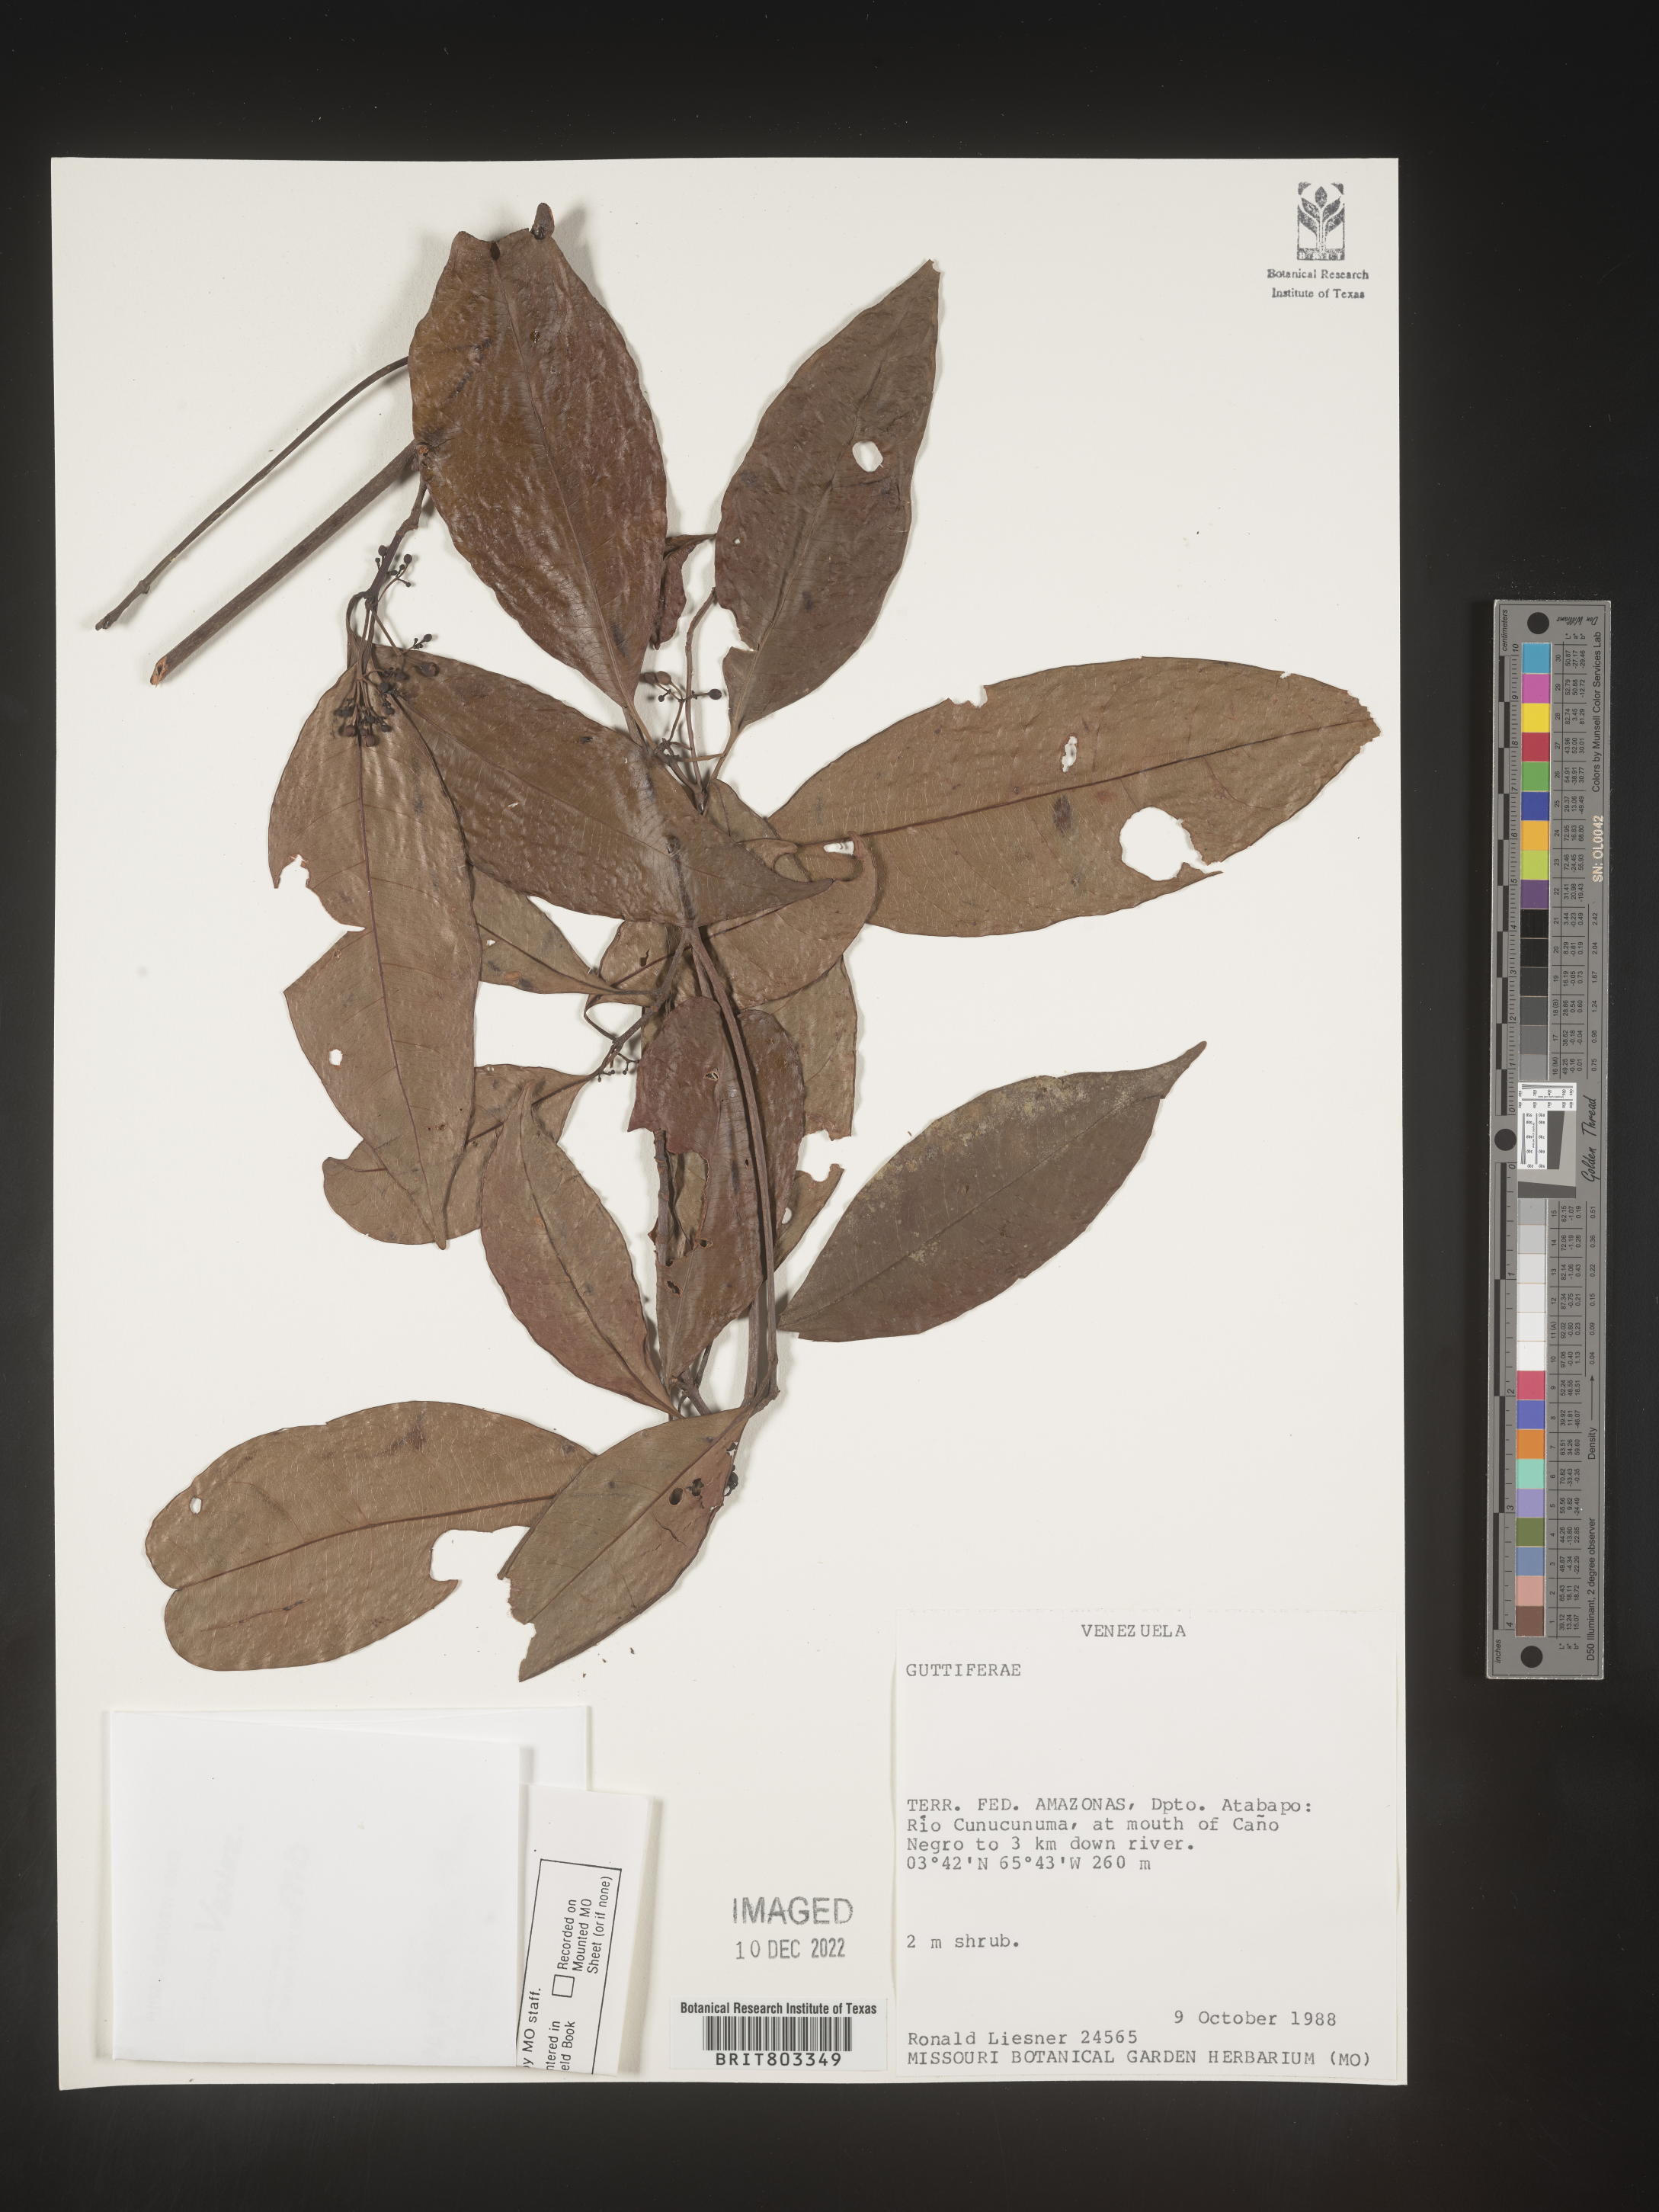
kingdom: Plantae
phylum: Tracheophyta
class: Magnoliopsida
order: Malpighiales
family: Clusiaceae
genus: Tovomita
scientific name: Tovomita
